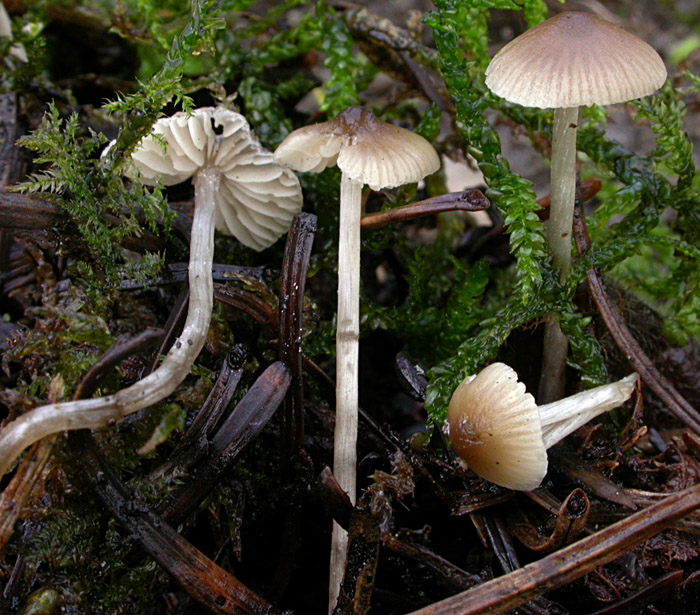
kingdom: Fungi
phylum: Basidiomycota
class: Agaricomycetes
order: Agaricales
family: Lyophyllaceae
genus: Sagaranella
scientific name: Sagaranella tylicolor
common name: kvælstof-gråblad
